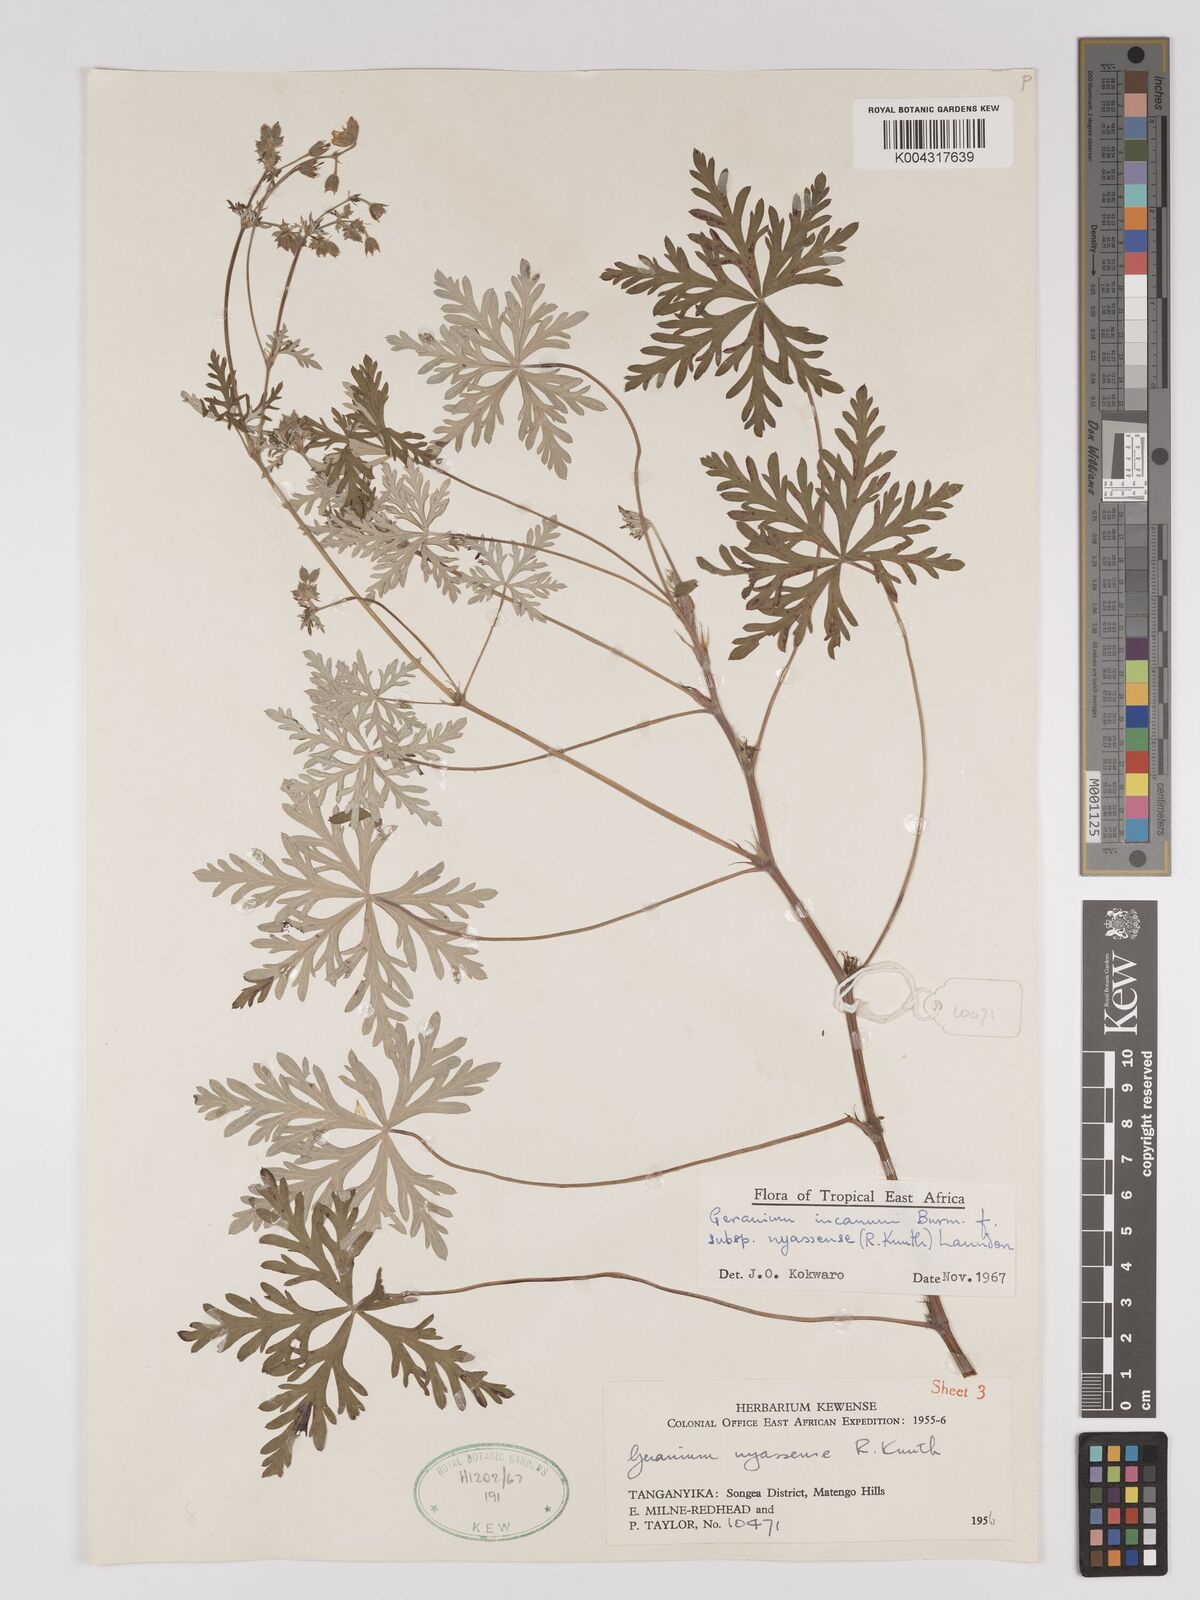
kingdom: Plantae
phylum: Tracheophyta
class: Magnoliopsida
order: Geraniales
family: Geraniaceae
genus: Geranium
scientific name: Geranium incanum
